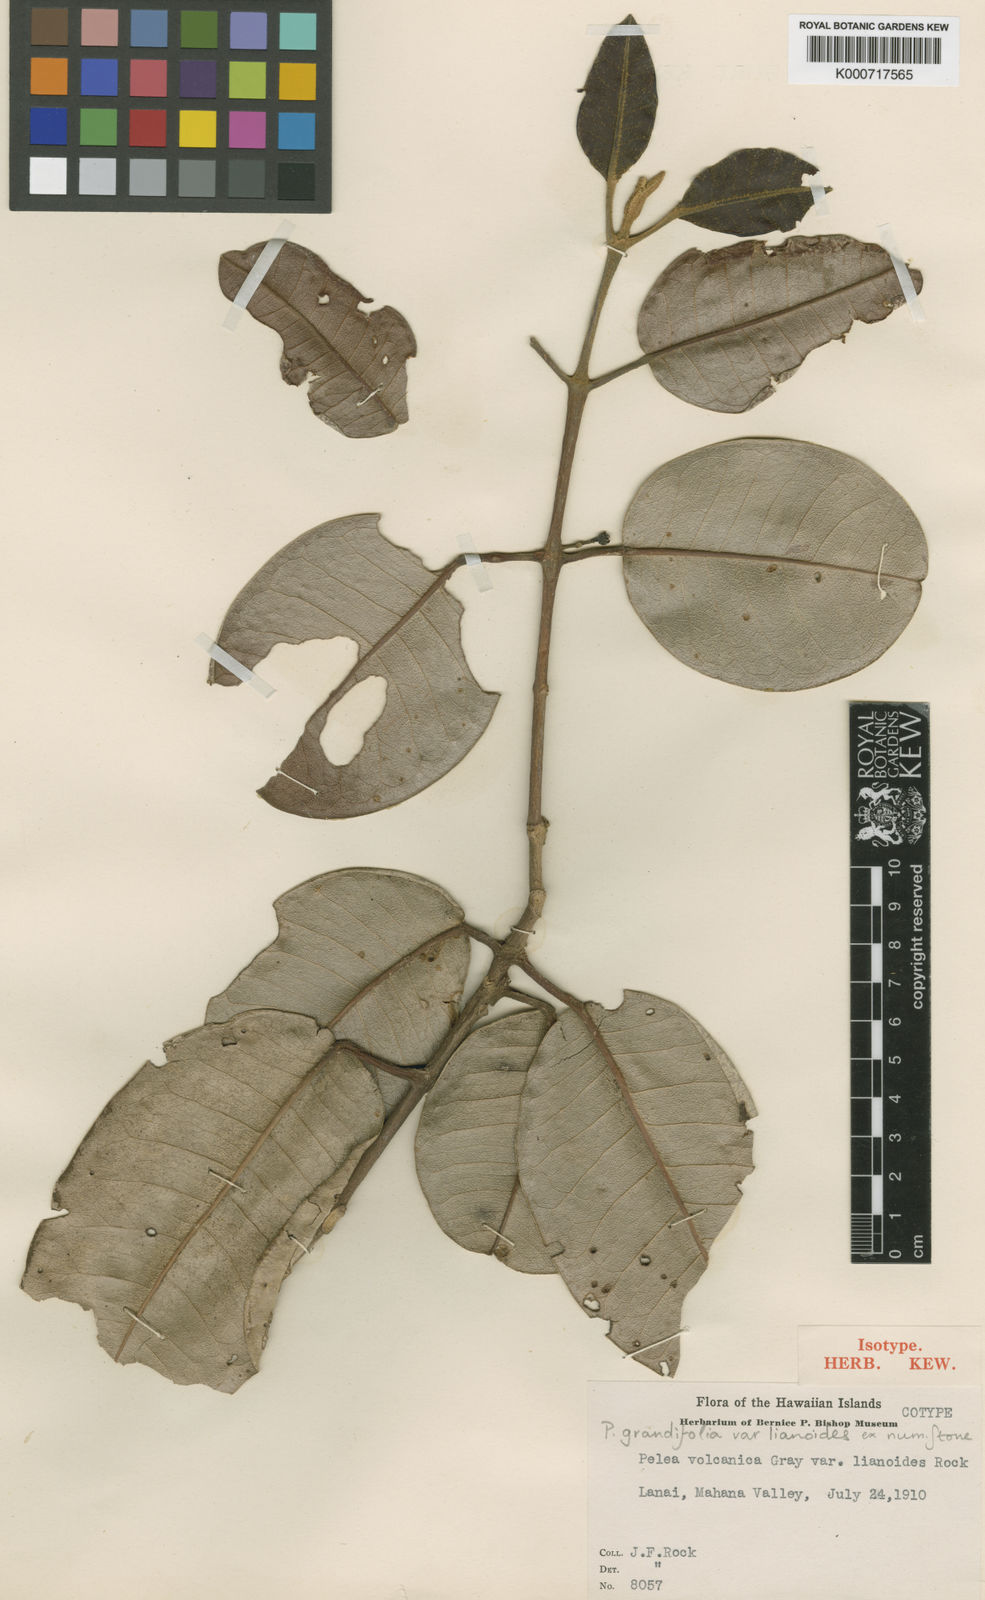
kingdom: Plantae
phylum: Tracheophyta
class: Magnoliopsida
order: Sapindales
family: Rutaceae
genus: Melicope
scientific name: Melicope volcanica
